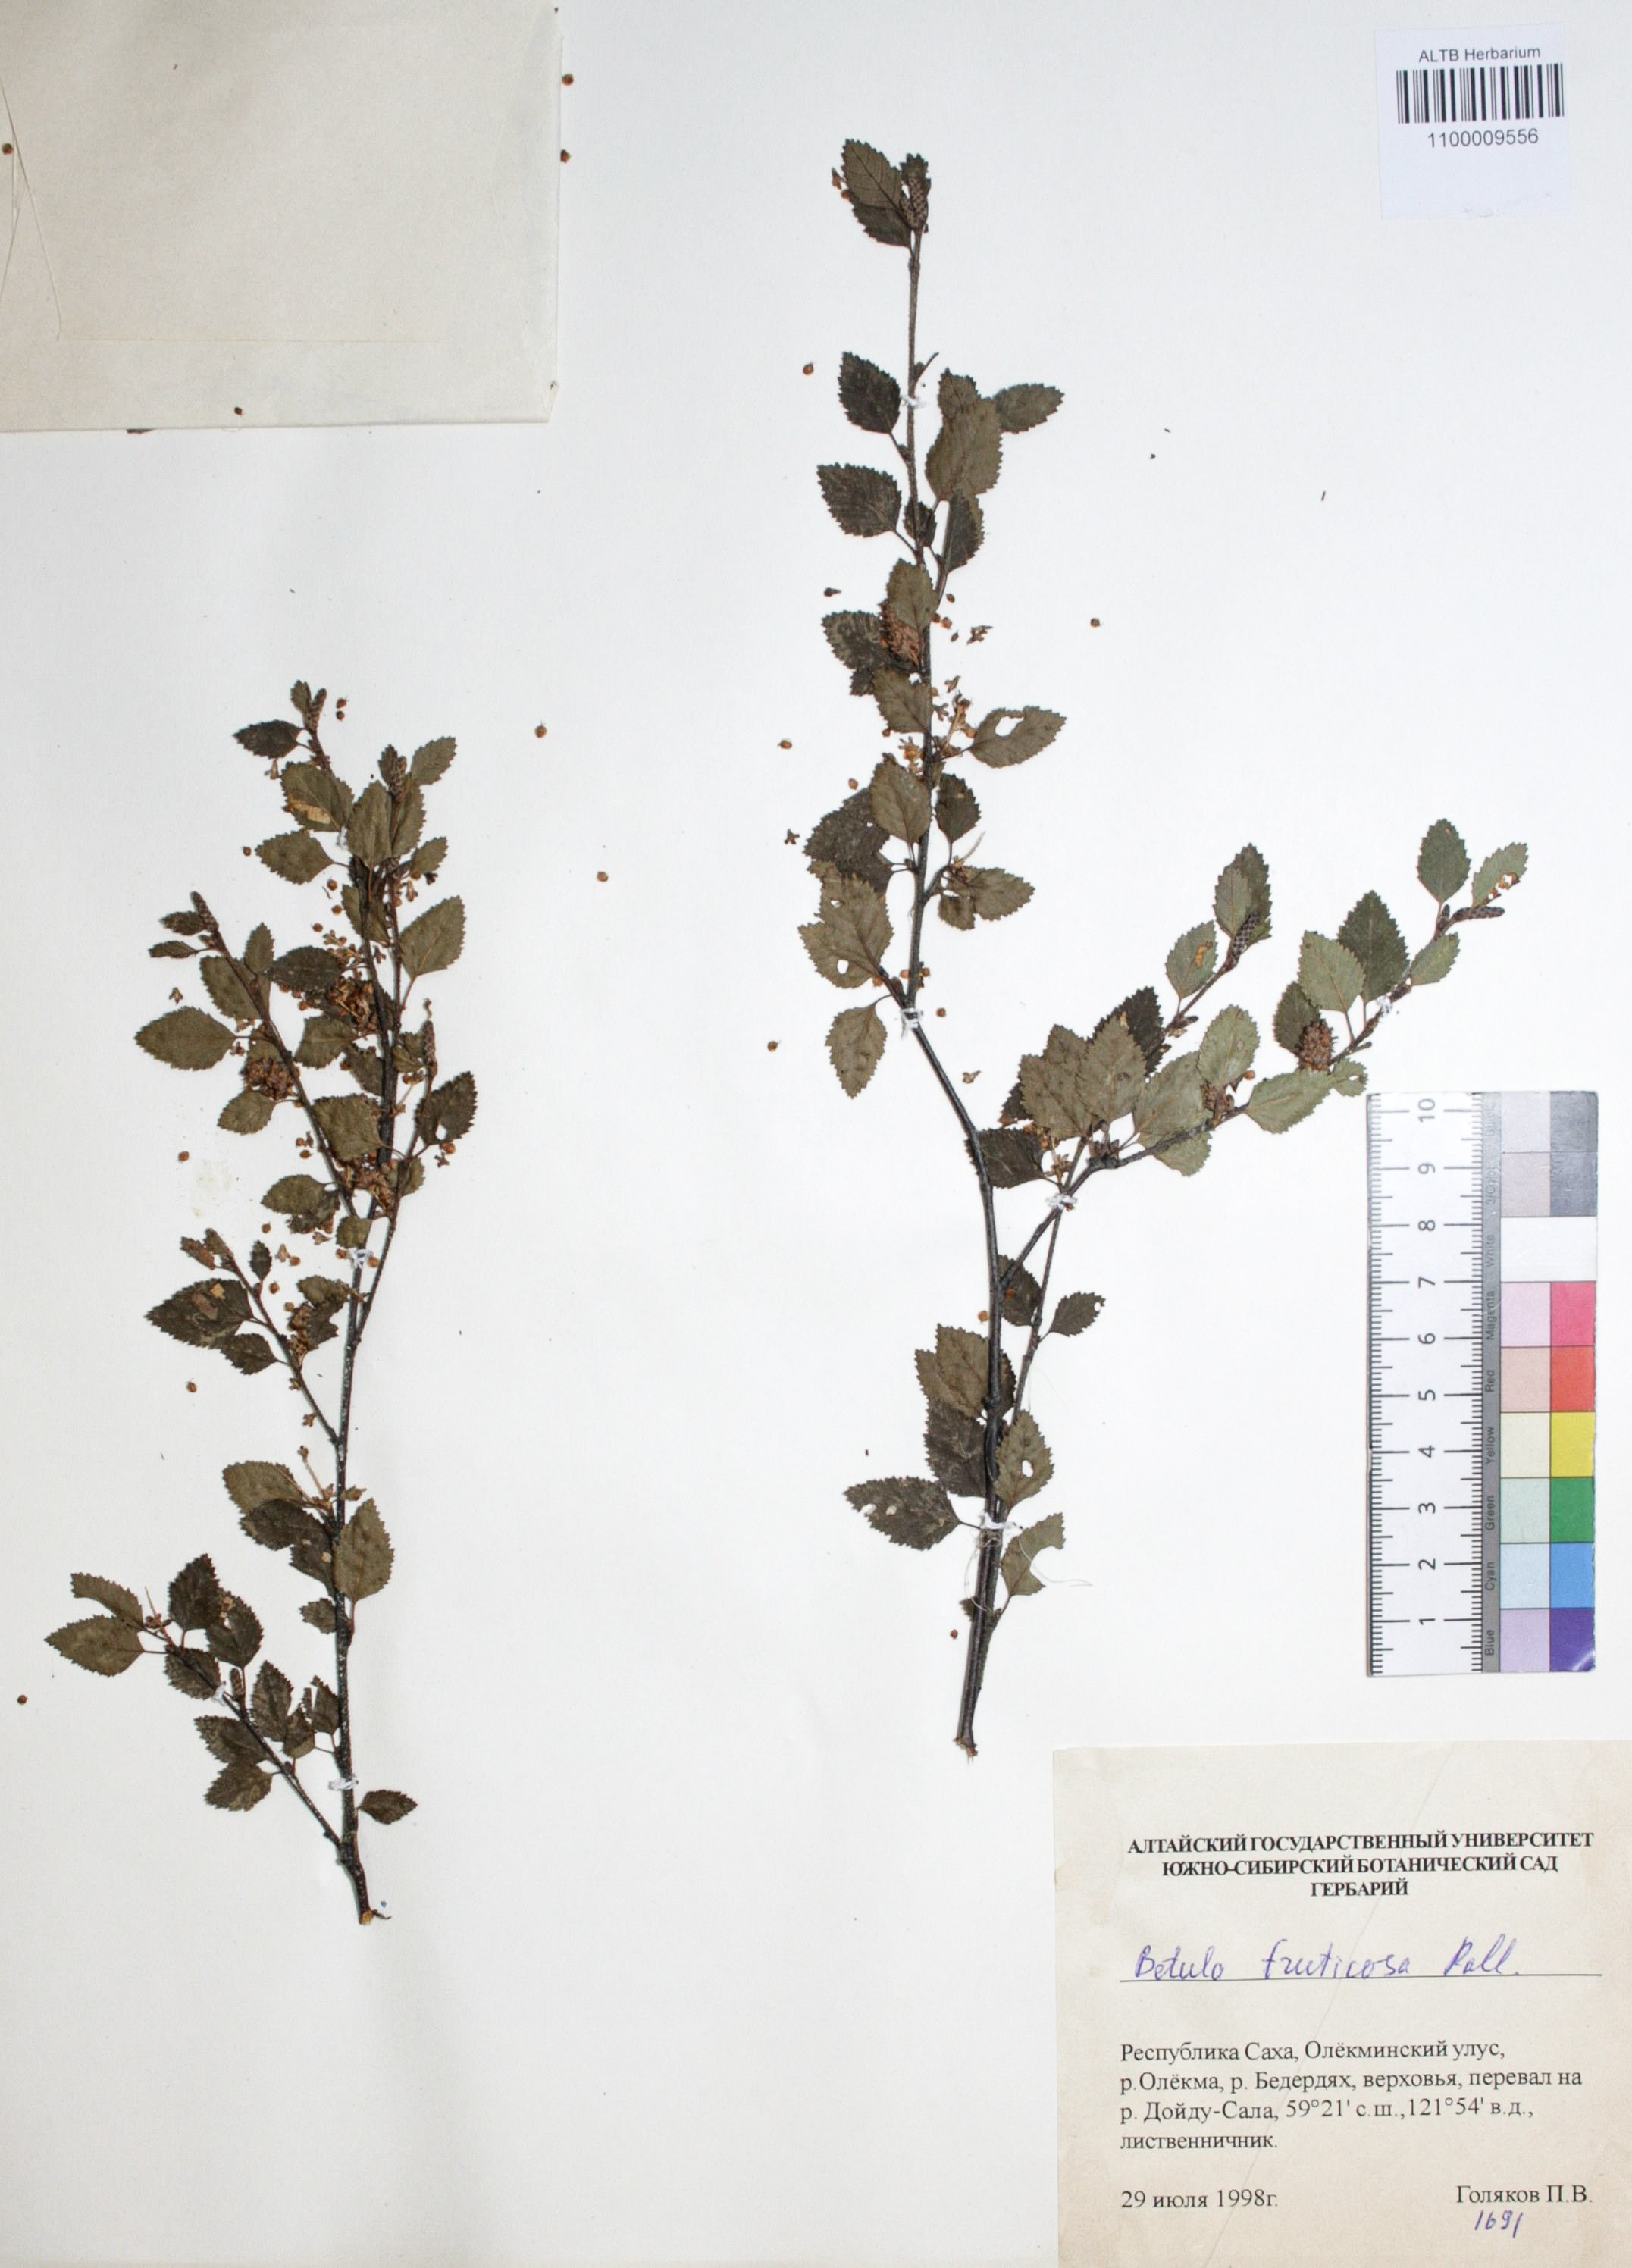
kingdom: Plantae
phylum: Tracheophyta
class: Magnoliopsida
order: Fagales
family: Betulaceae
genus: Betula
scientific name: Betula fruticosa
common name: Japanese bog birch
